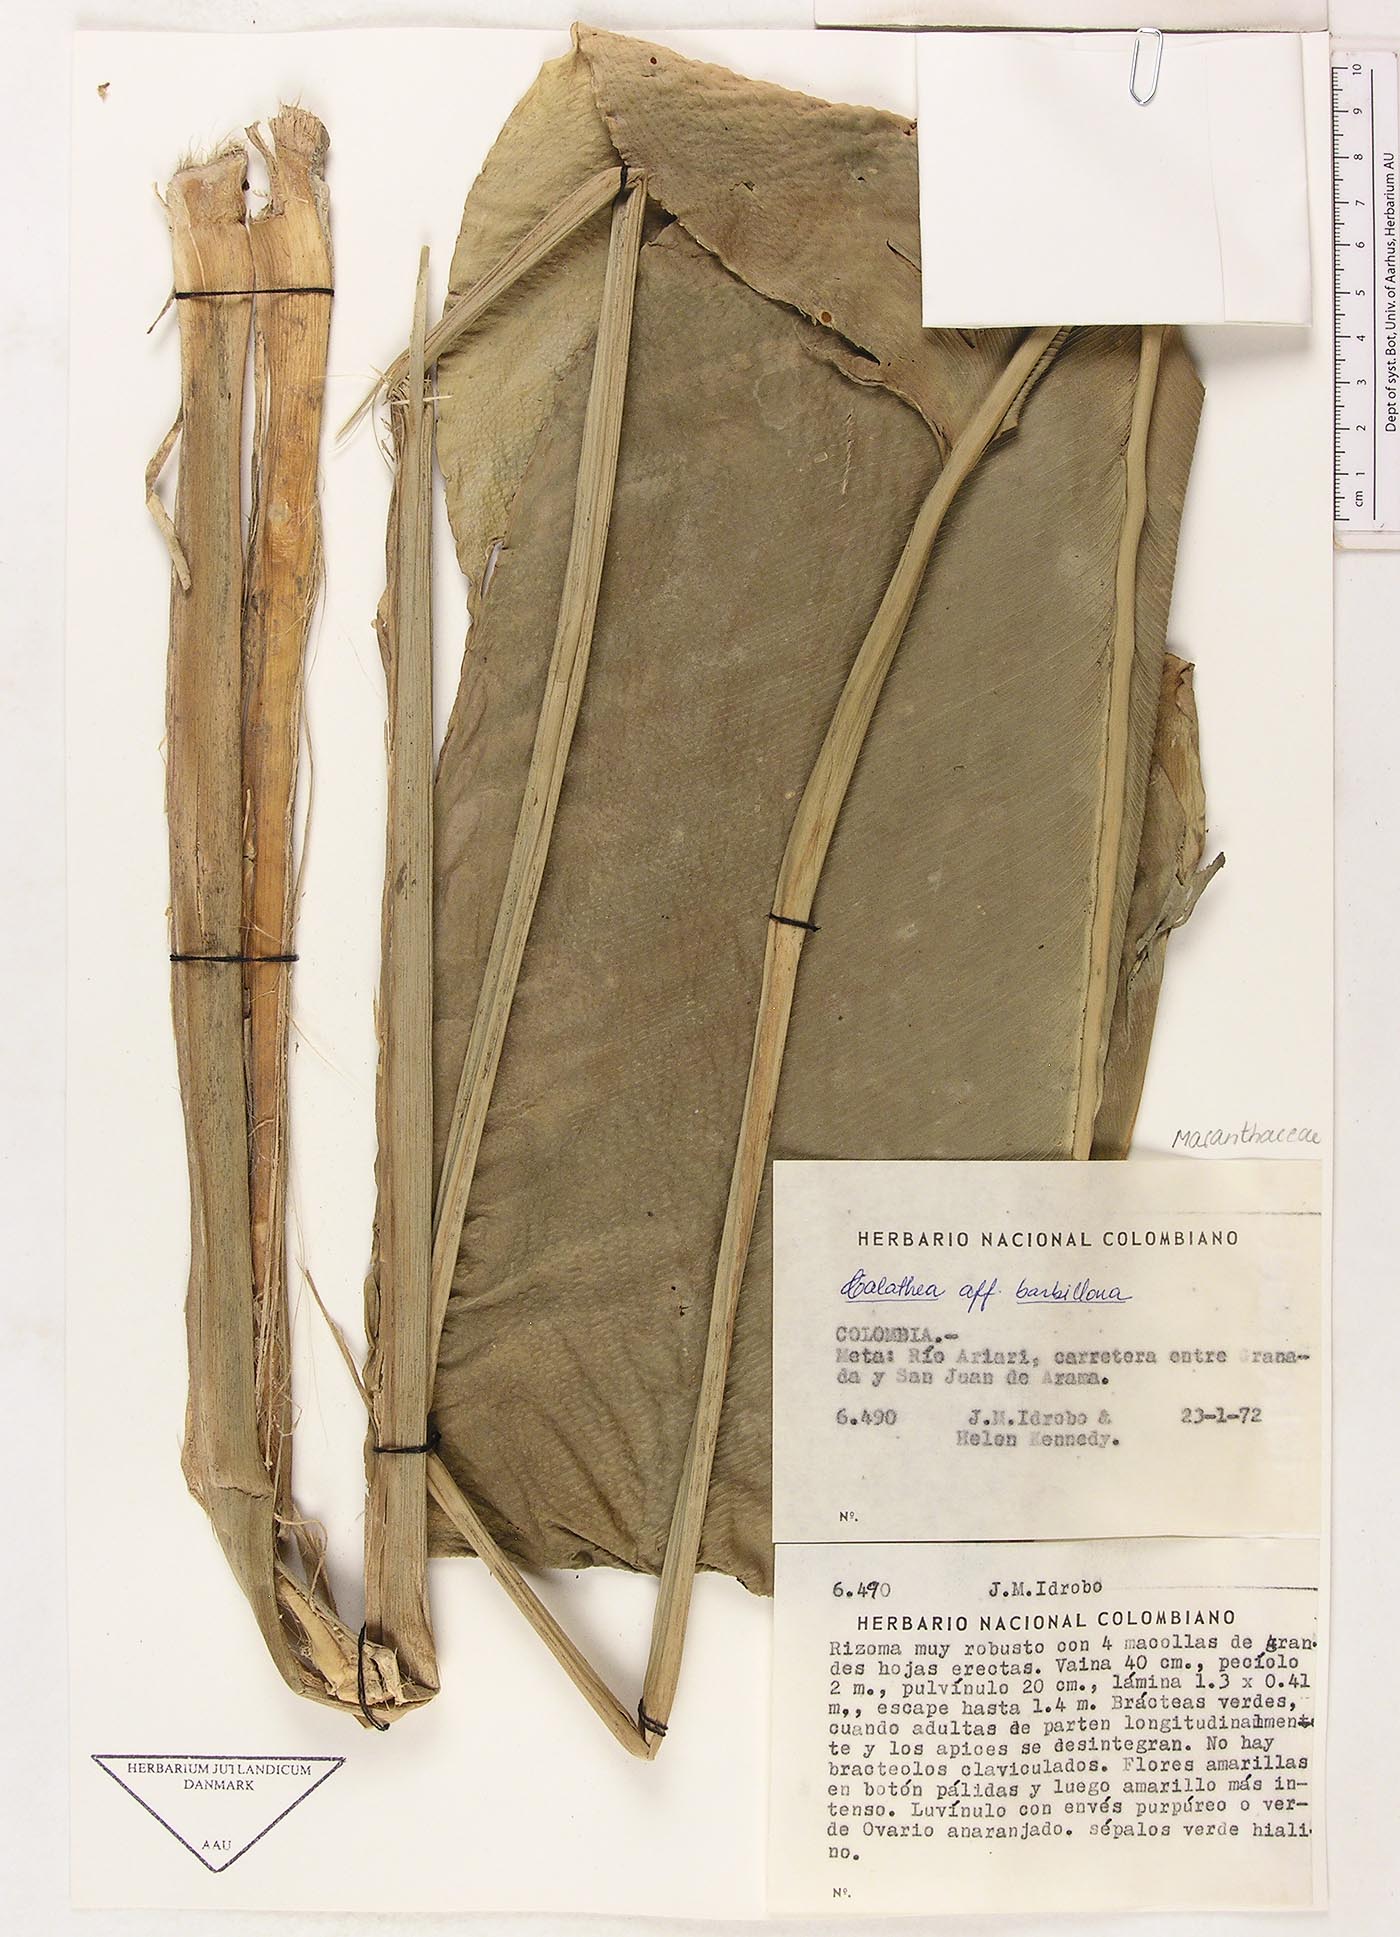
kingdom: Plantae
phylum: Tracheophyta
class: Liliopsida
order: Zingiberales
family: Marantaceae
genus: Goeppertia
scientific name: Goeppertia inocephala
